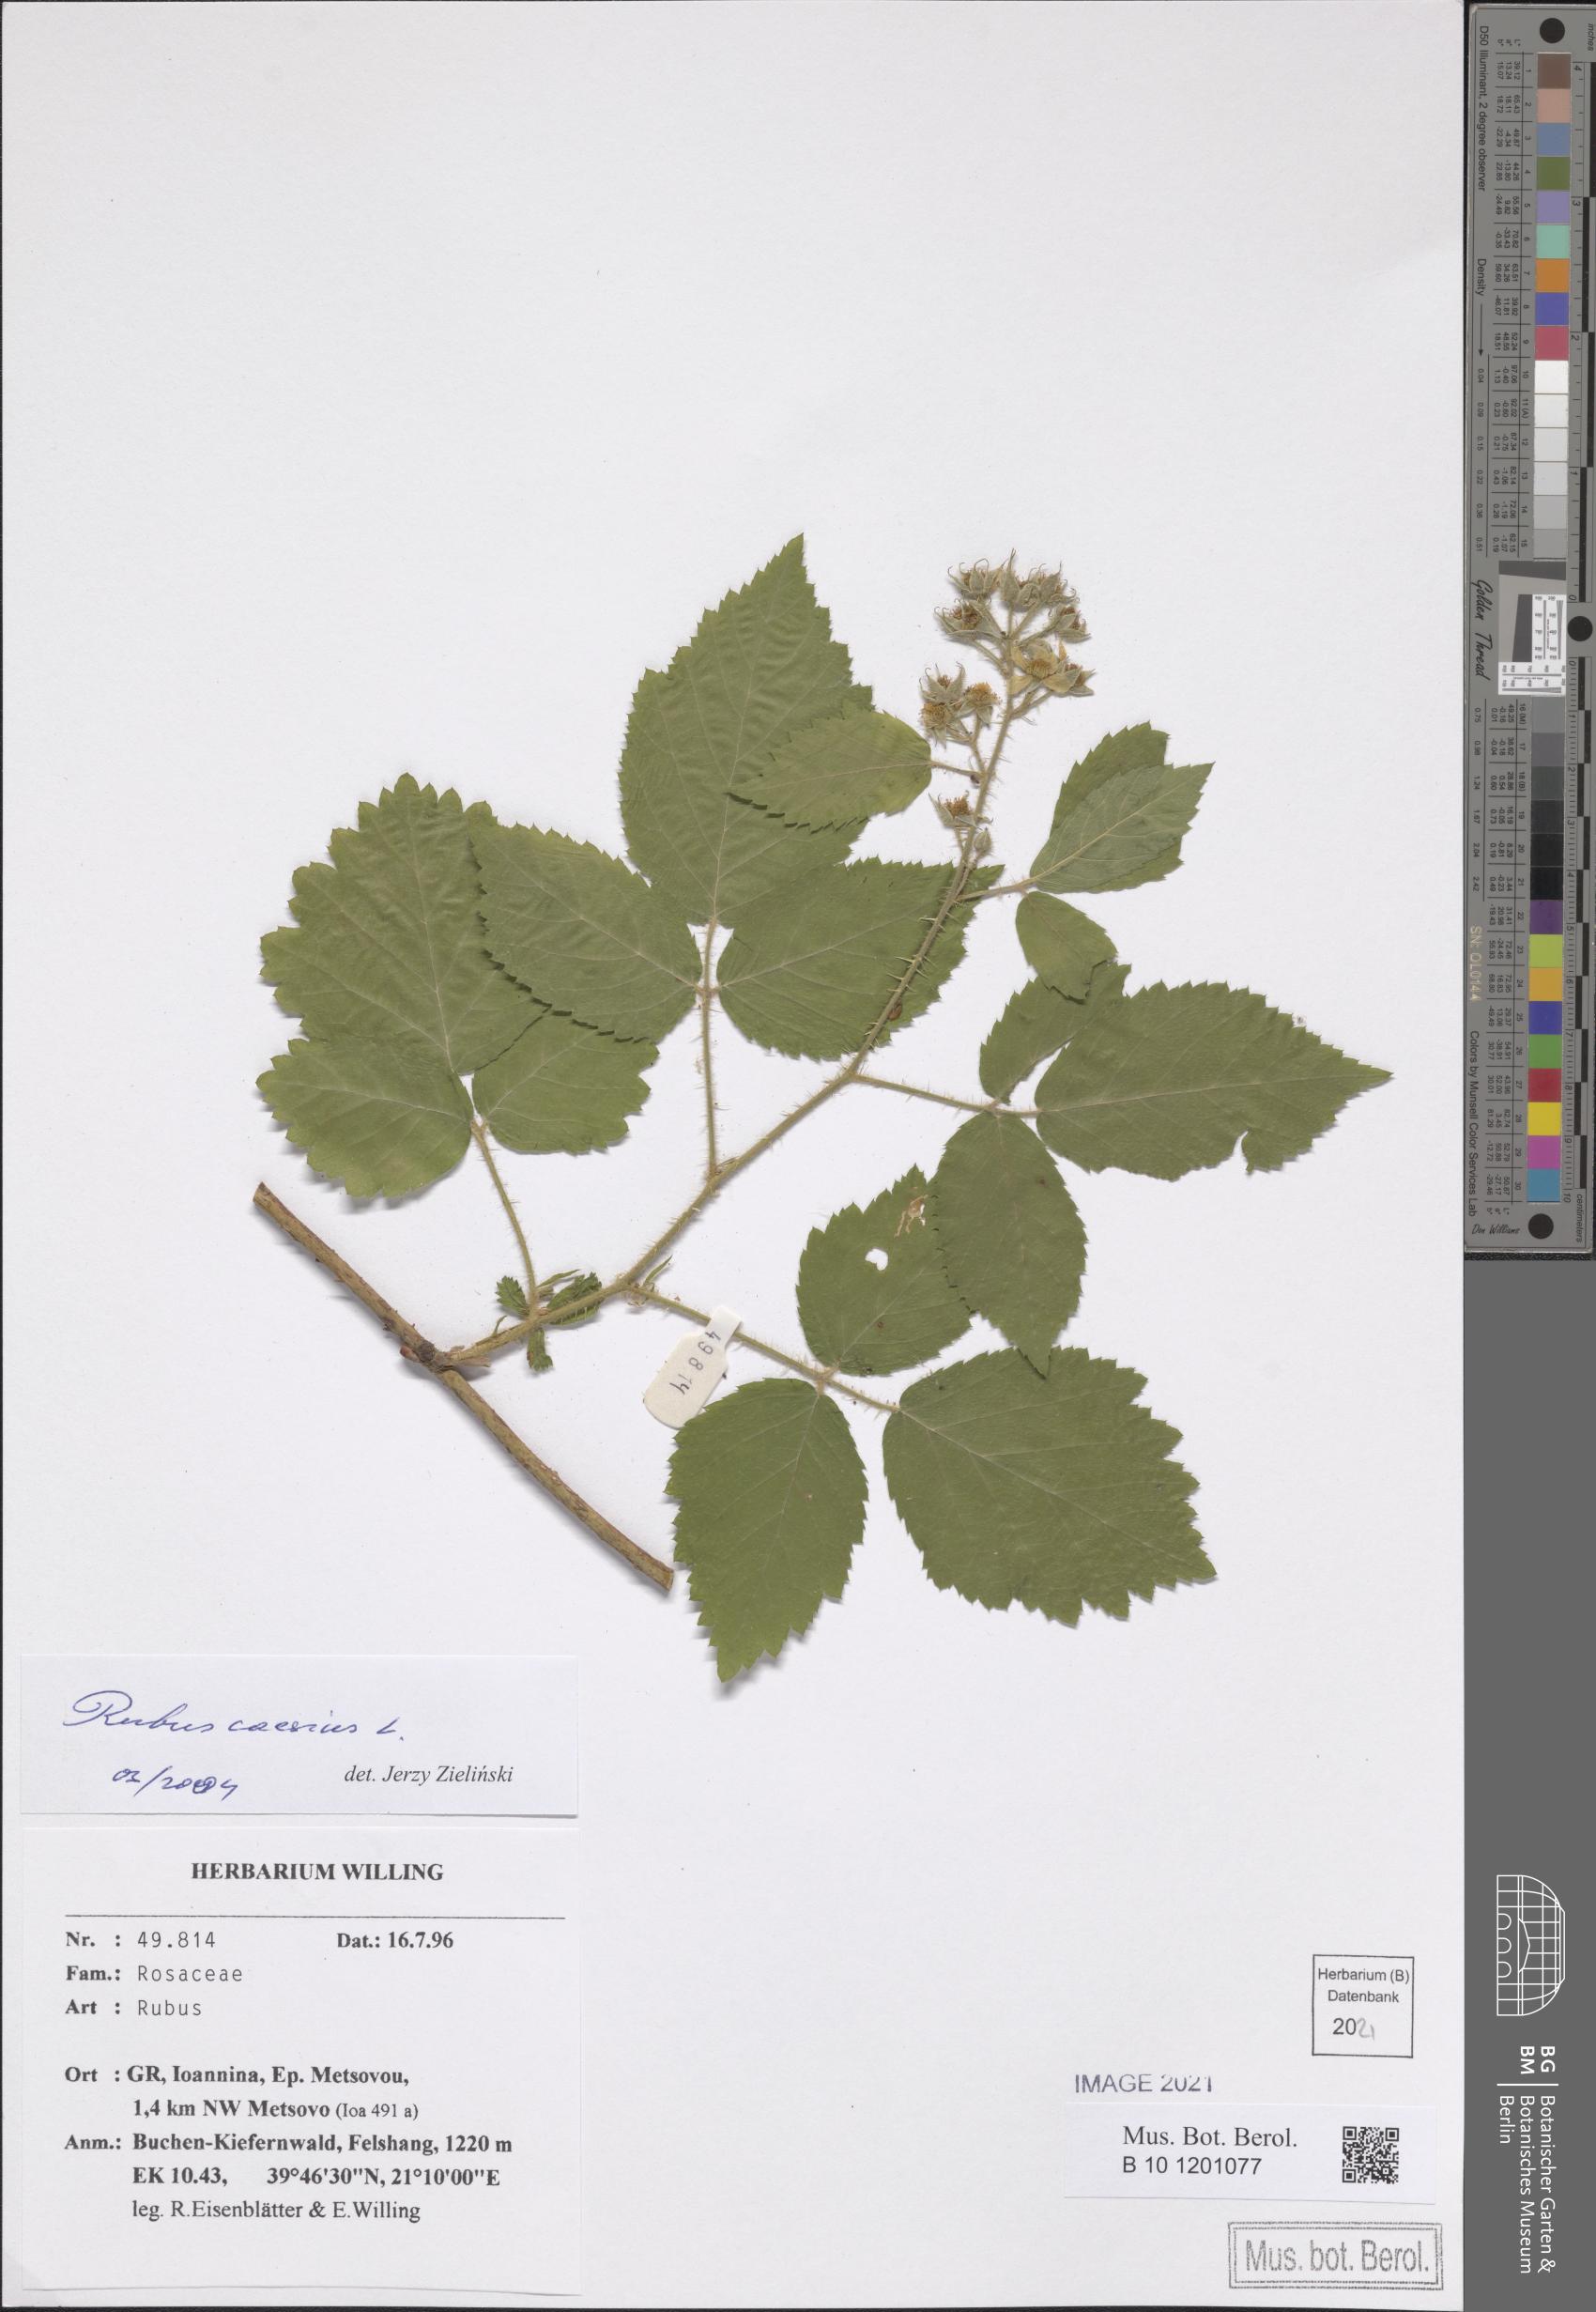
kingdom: Plantae
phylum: Tracheophyta
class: Magnoliopsida
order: Rosales
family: Rosaceae
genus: Rubus
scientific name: Rubus caesius
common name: Dewberry
